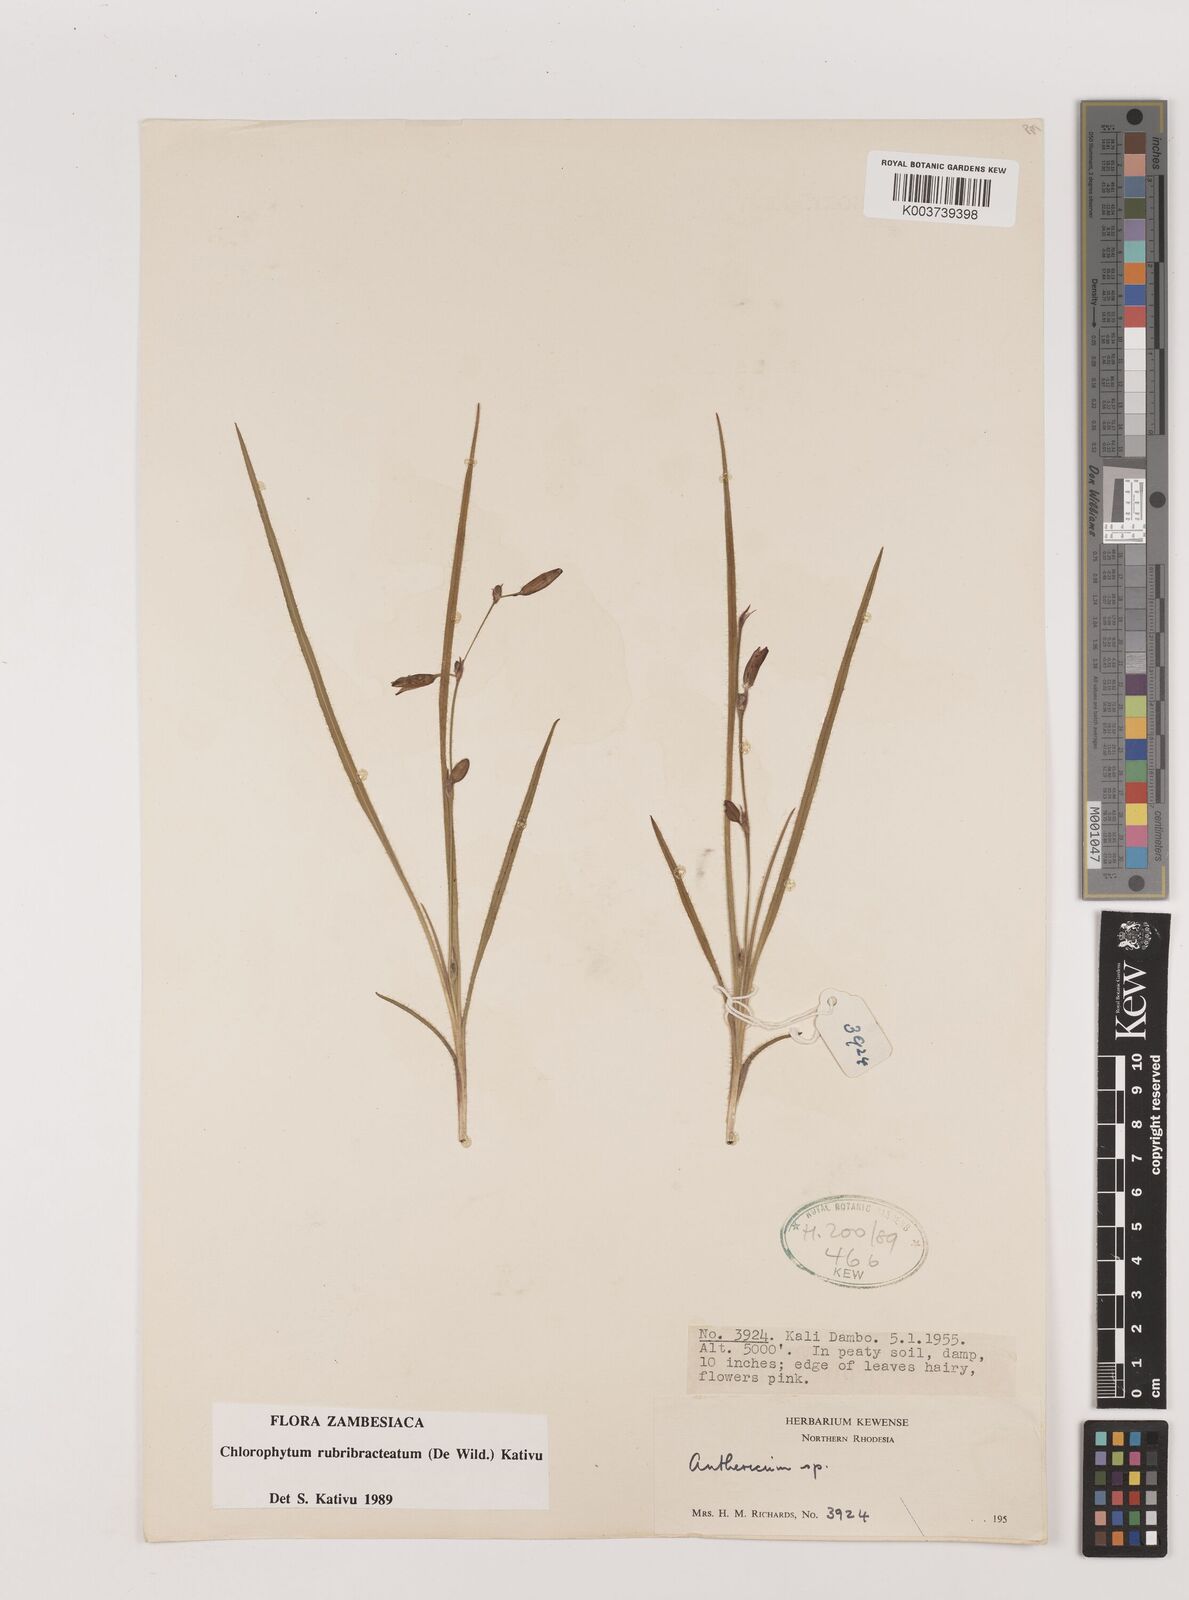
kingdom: Plantae
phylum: Tracheophyta
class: Liliopsida
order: Asparagales
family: Asparagaceae
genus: Chlorophytum
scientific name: Chlorophytum rubribracteatum
